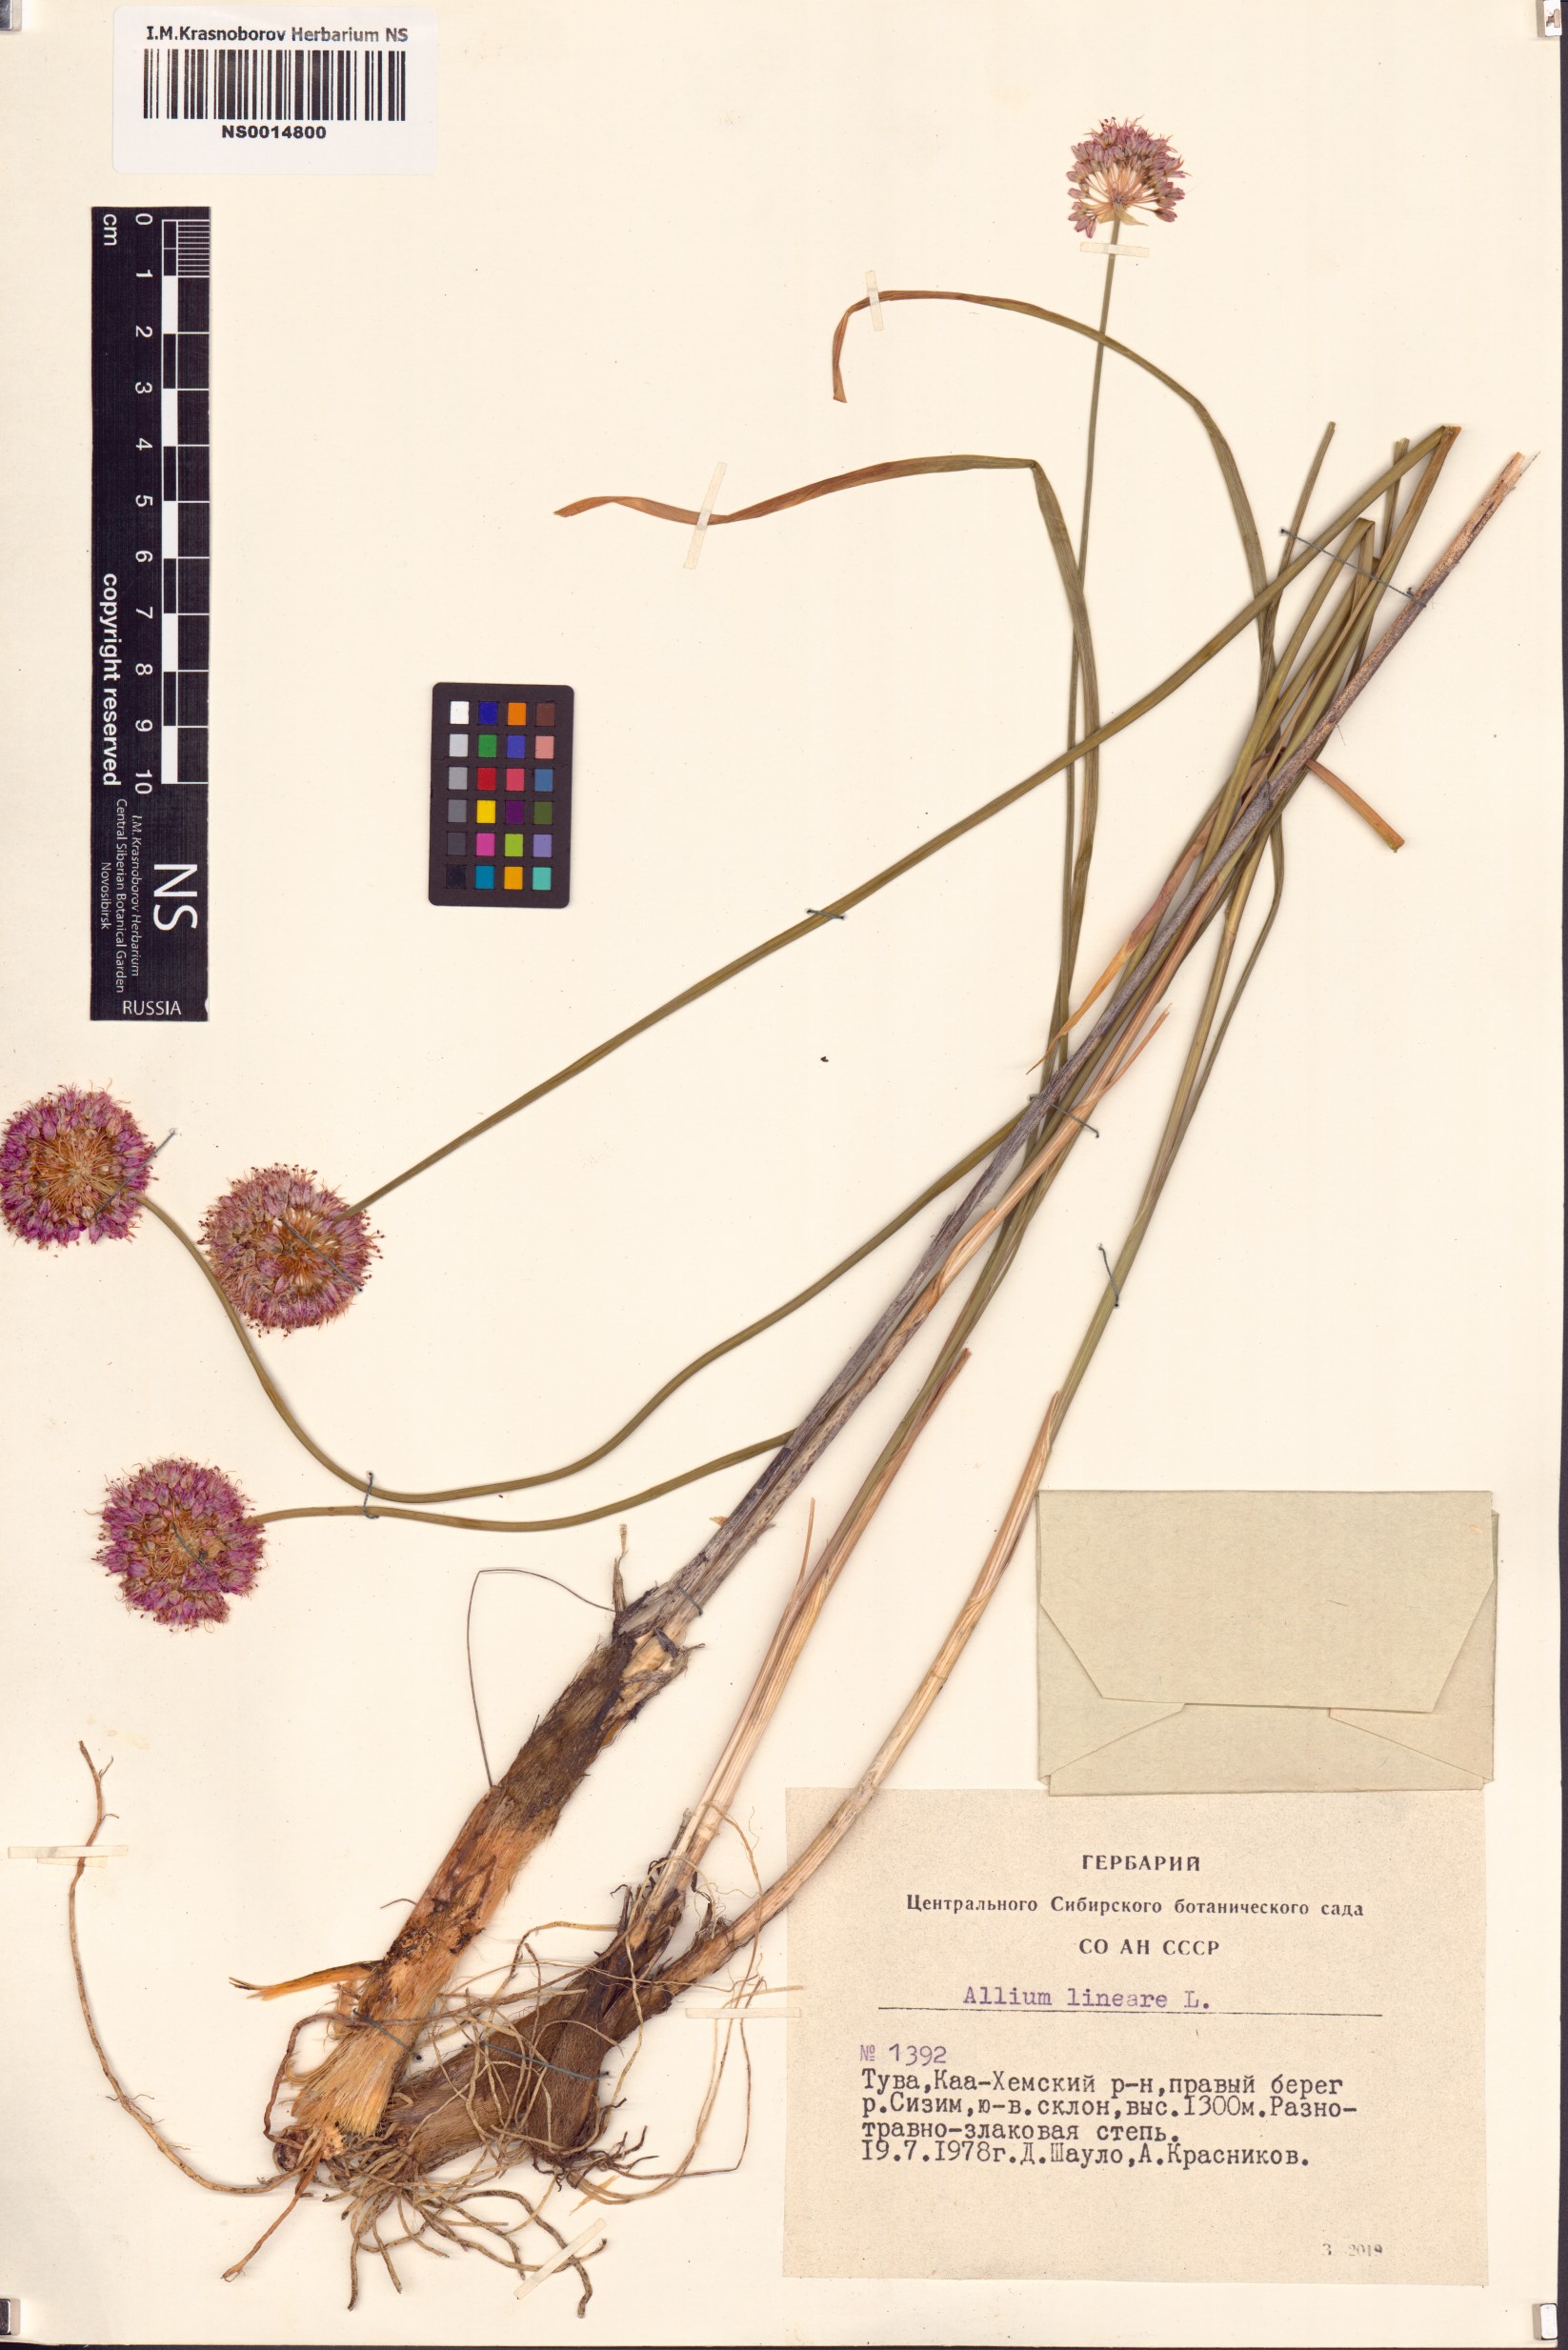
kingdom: Plantae
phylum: Tracheophyta
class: Liliopsida
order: Asparagales
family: Amaryllidaceae
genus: Allium
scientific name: Allium lineare
